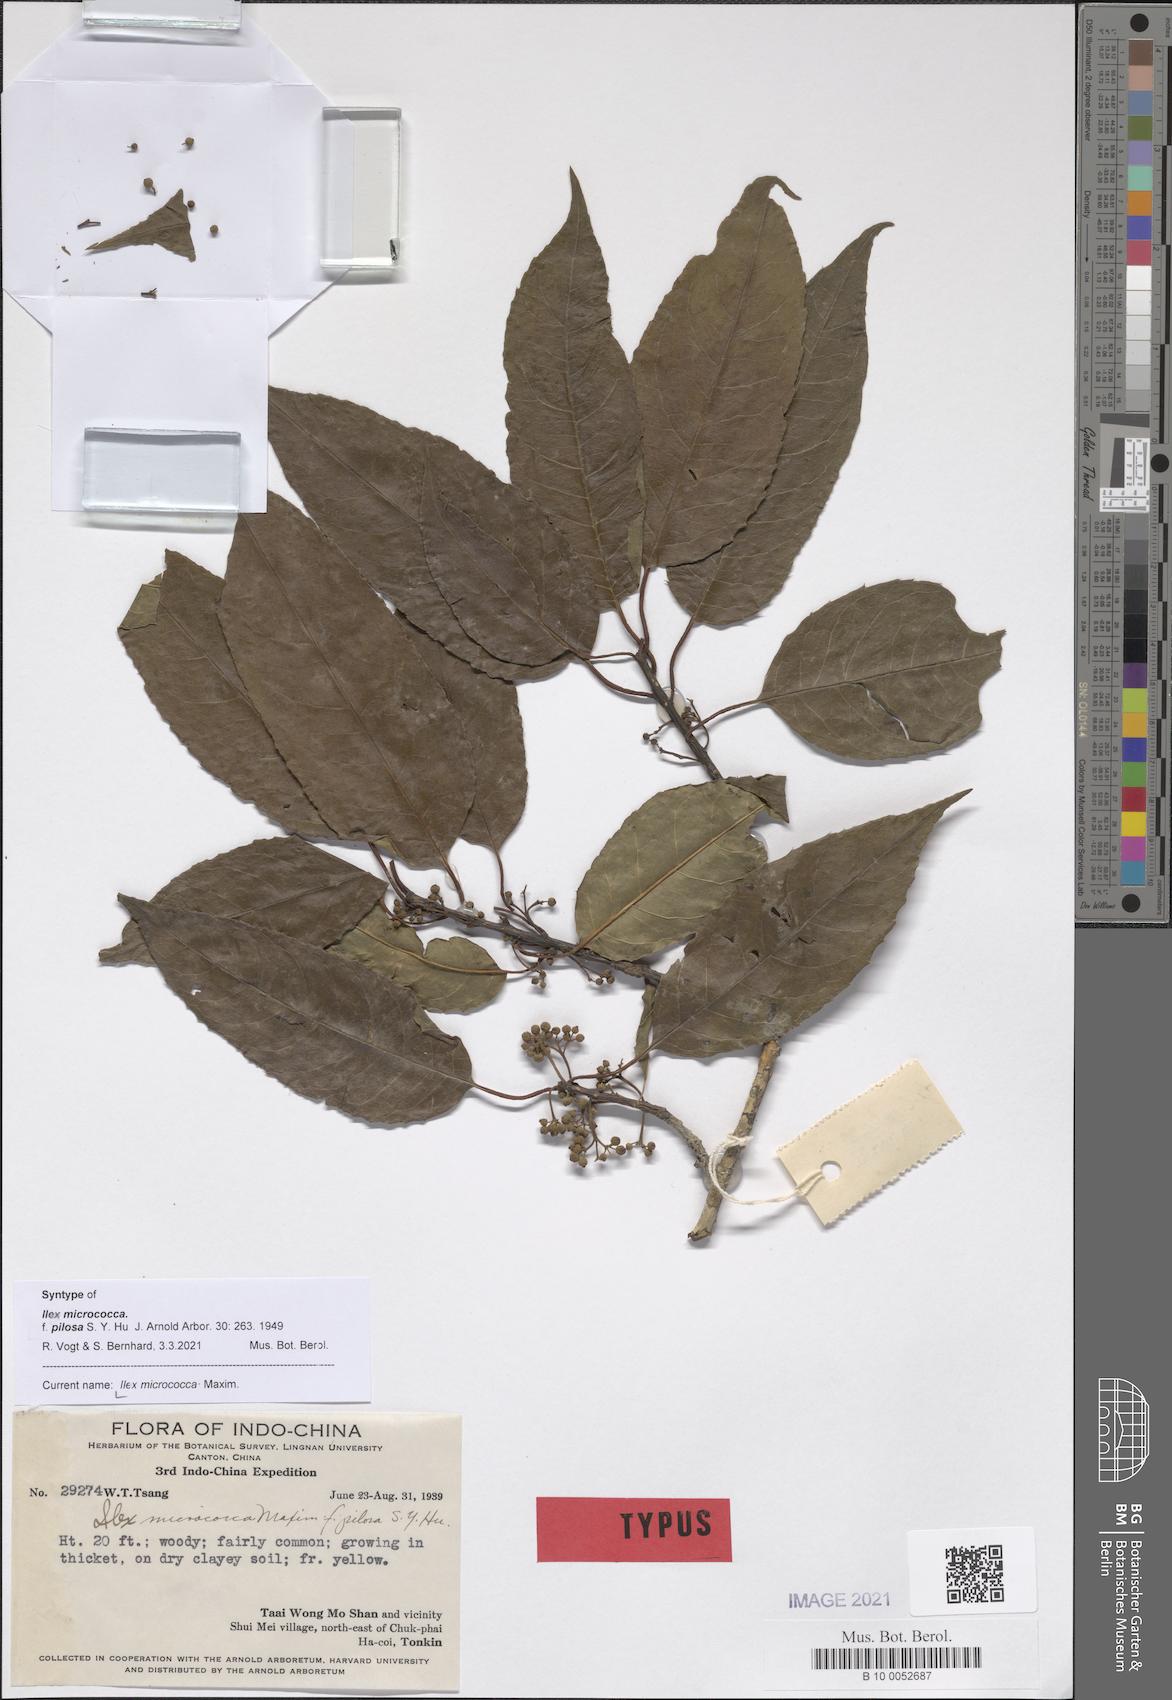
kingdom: Plantae
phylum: Tracheophyta
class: Magnoliopsida
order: Aquifoliales
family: Aquifoliaceae
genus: Ilex
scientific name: Ilex micrococca
